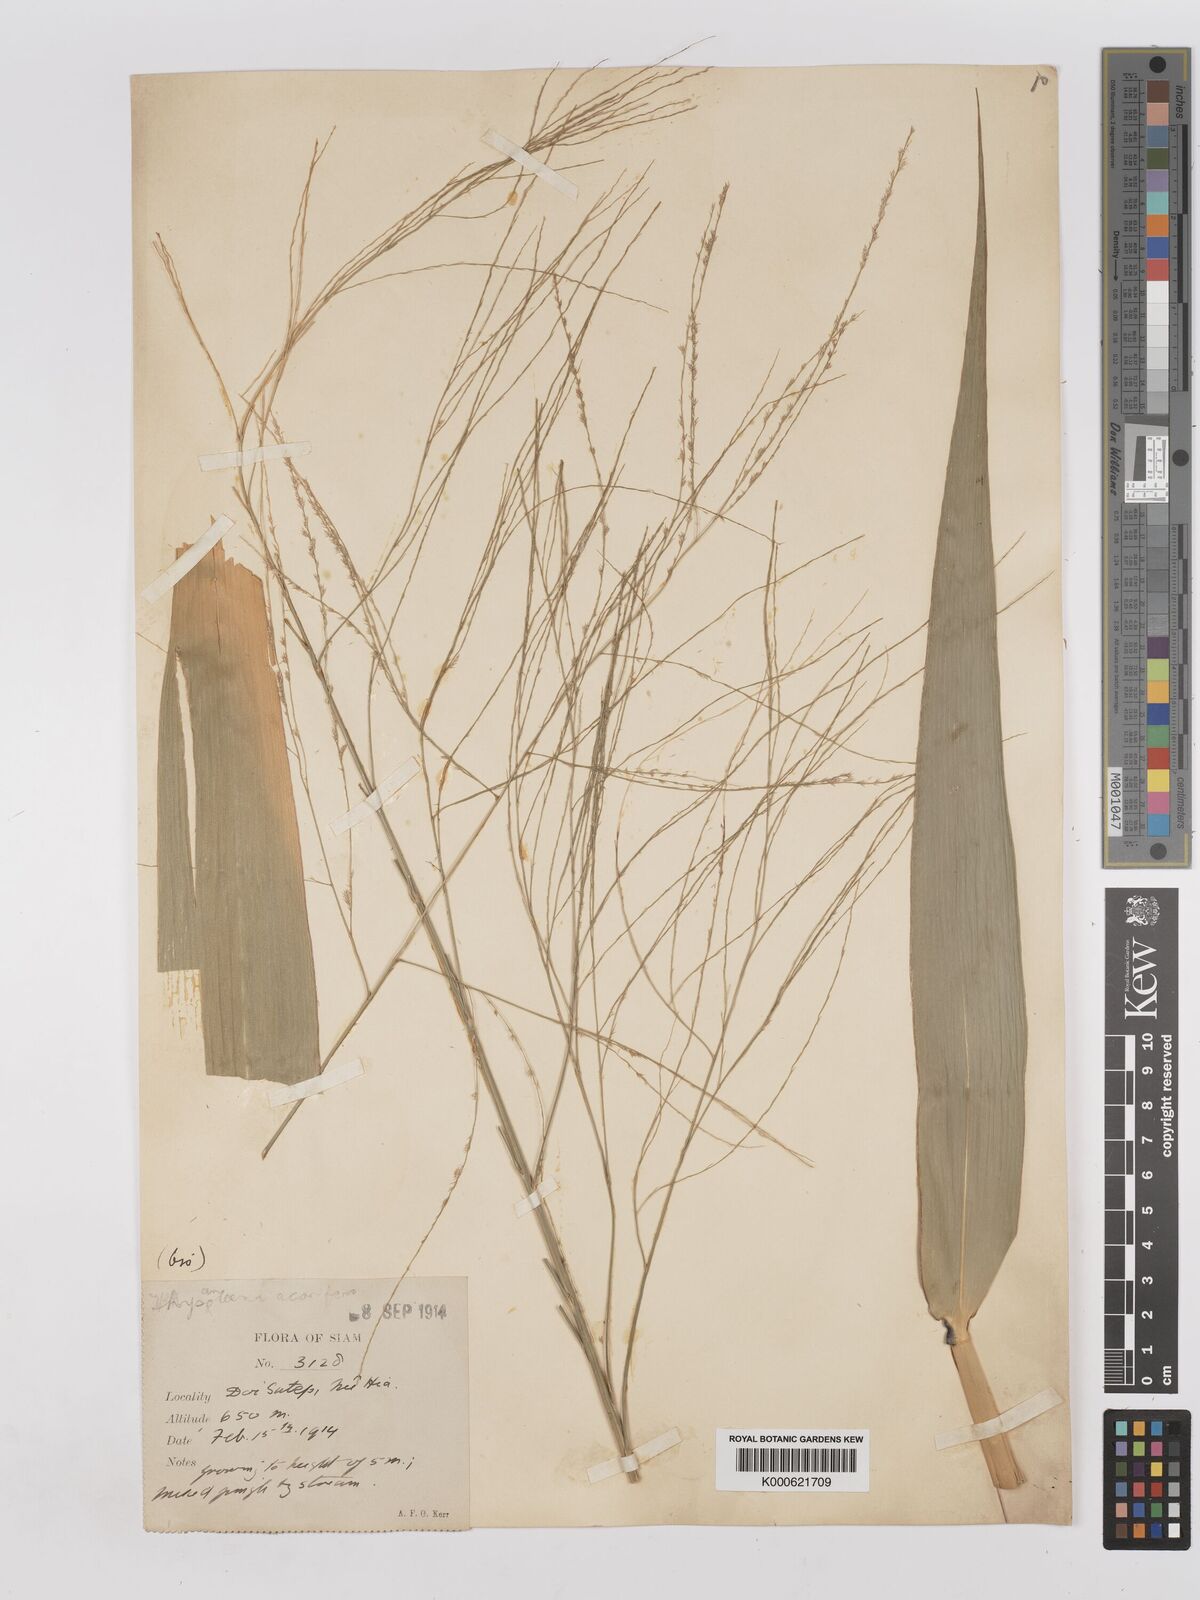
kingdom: Plantae
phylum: Tracheophyta
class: Liliopsida
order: Poales
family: Poaceae
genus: Thysanolaena
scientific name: Thysanolaena latifolia
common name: Tiger grass
